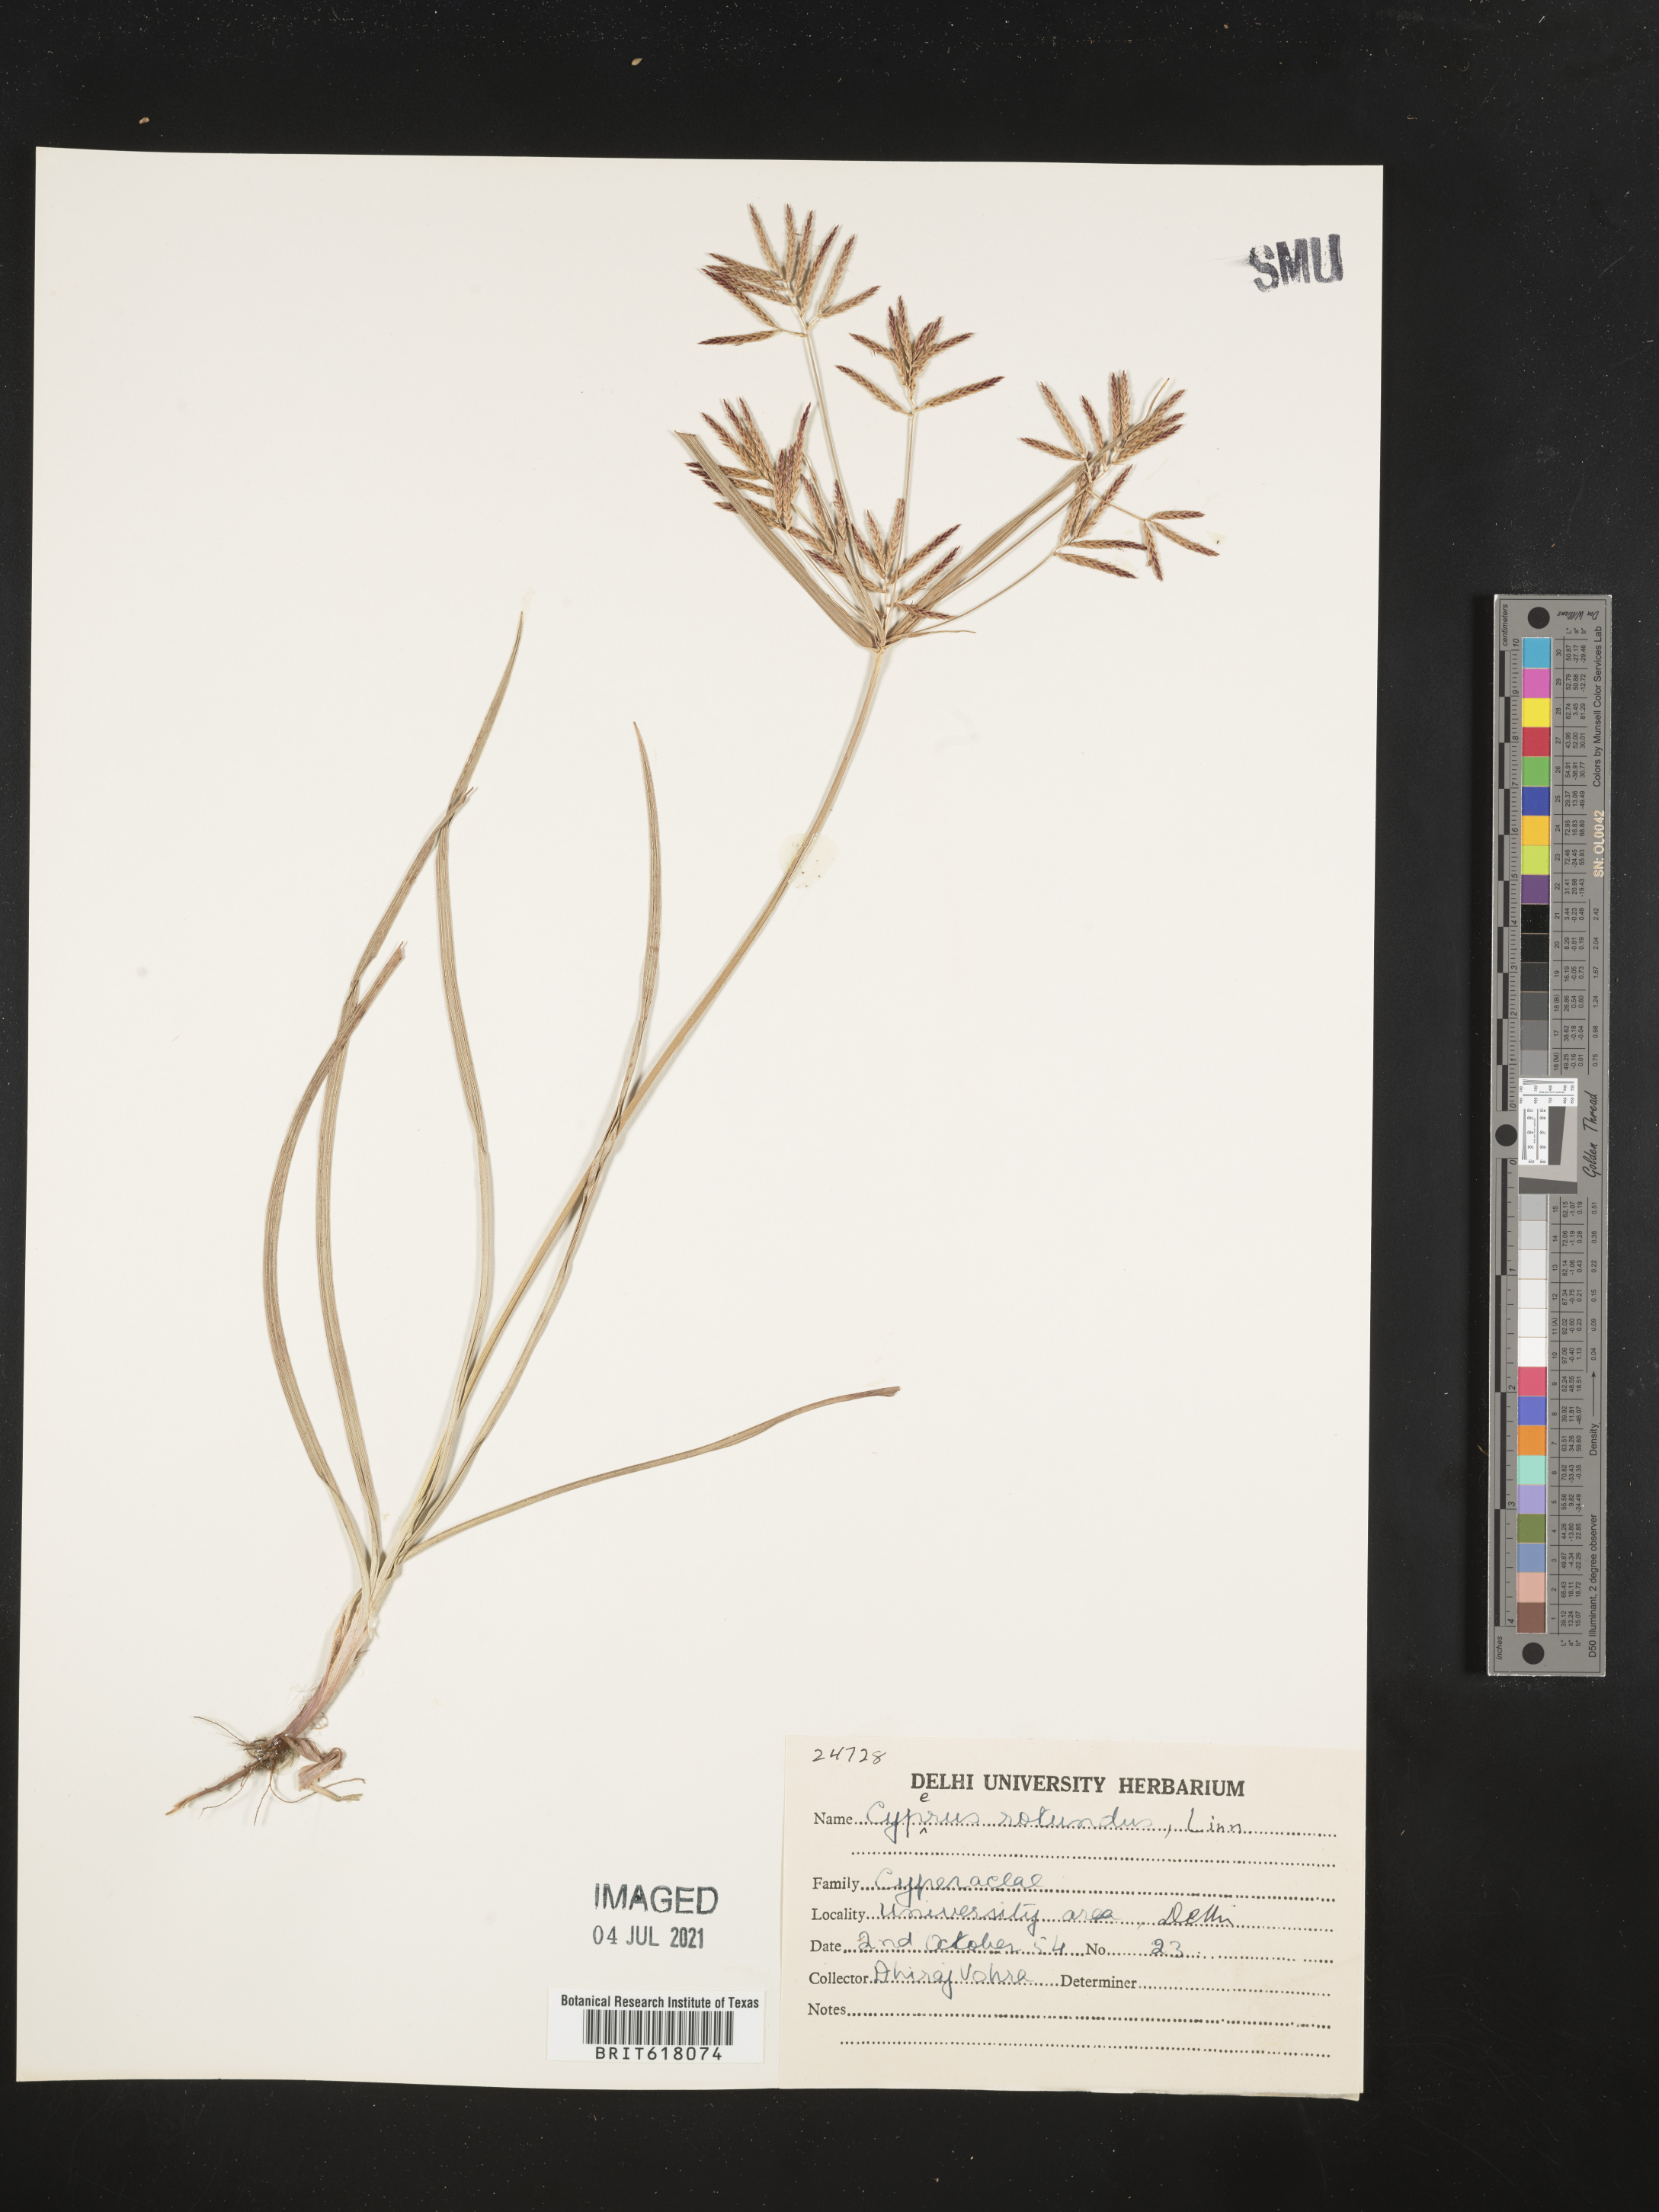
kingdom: Plantae
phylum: Tracheophyta
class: Liliopsida
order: Poales
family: Cyperaceae
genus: Cyperus
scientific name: Cyperus rotundus
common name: Nutgrass
